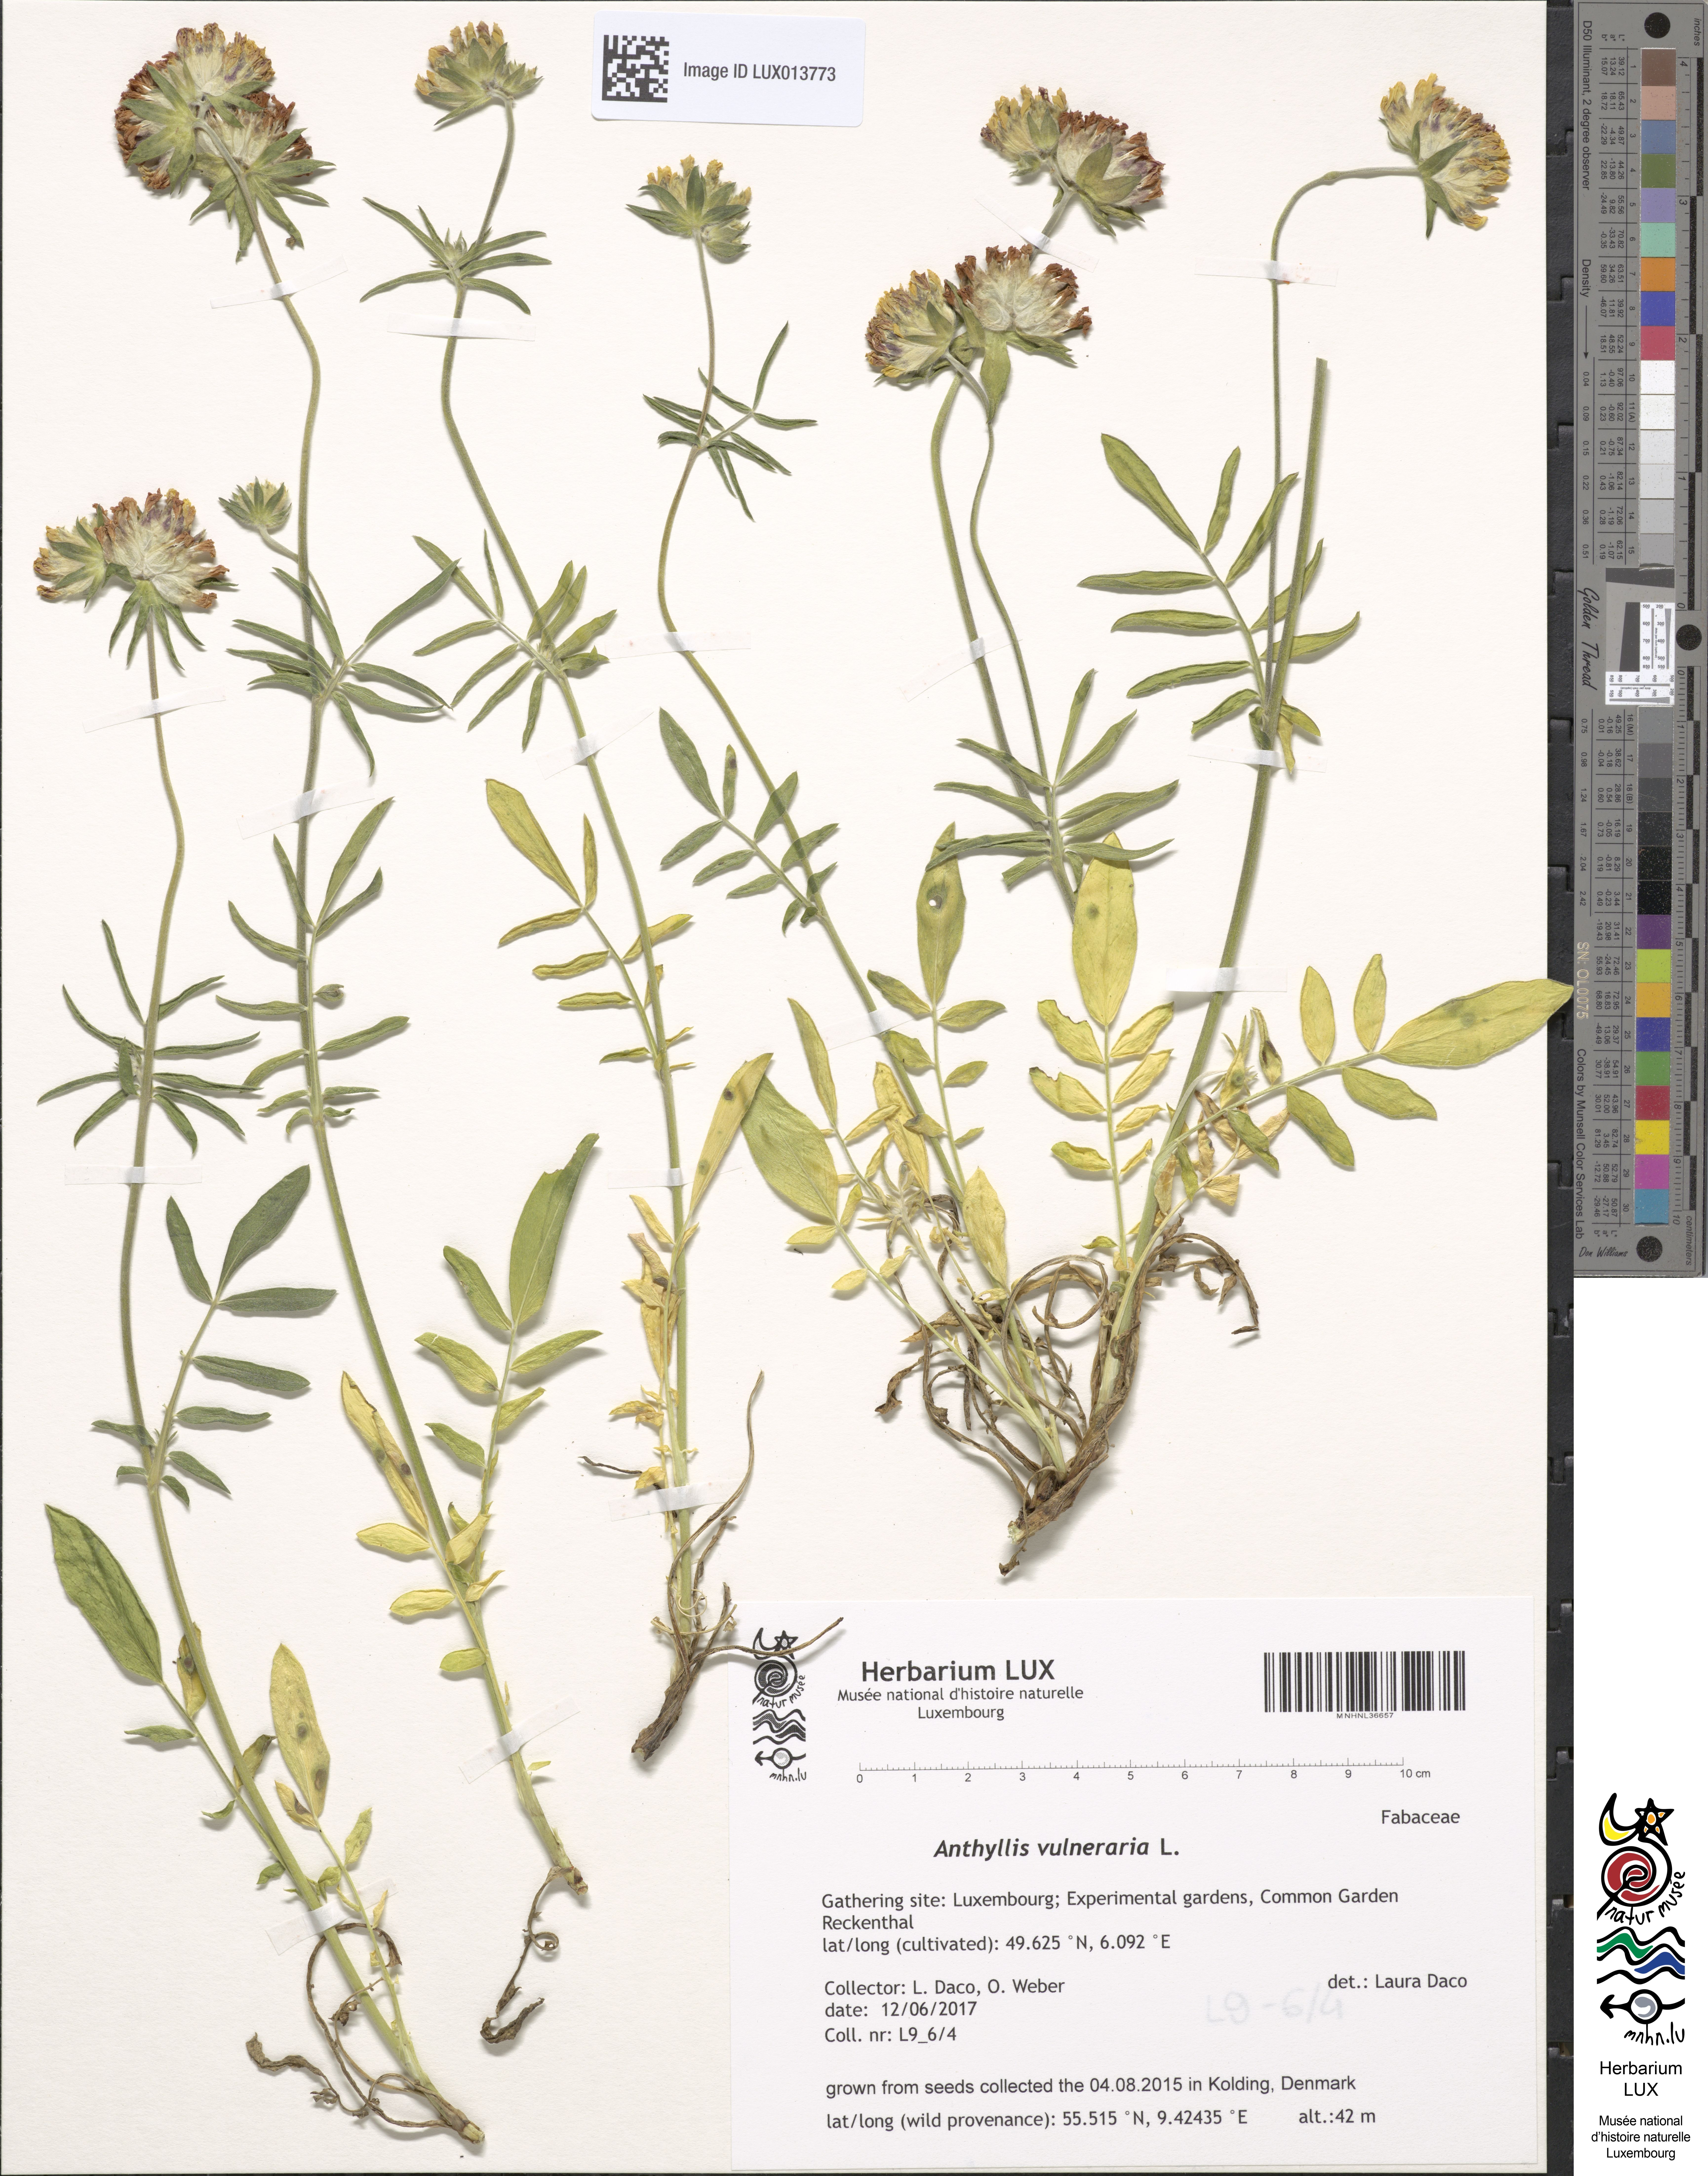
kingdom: Plantae
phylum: Tracheophyta
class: Magnoliopsida
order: Fabales
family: Fabaceae
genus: Anthyllis
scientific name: Anthyllis vulneraria
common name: Kidney vetch
